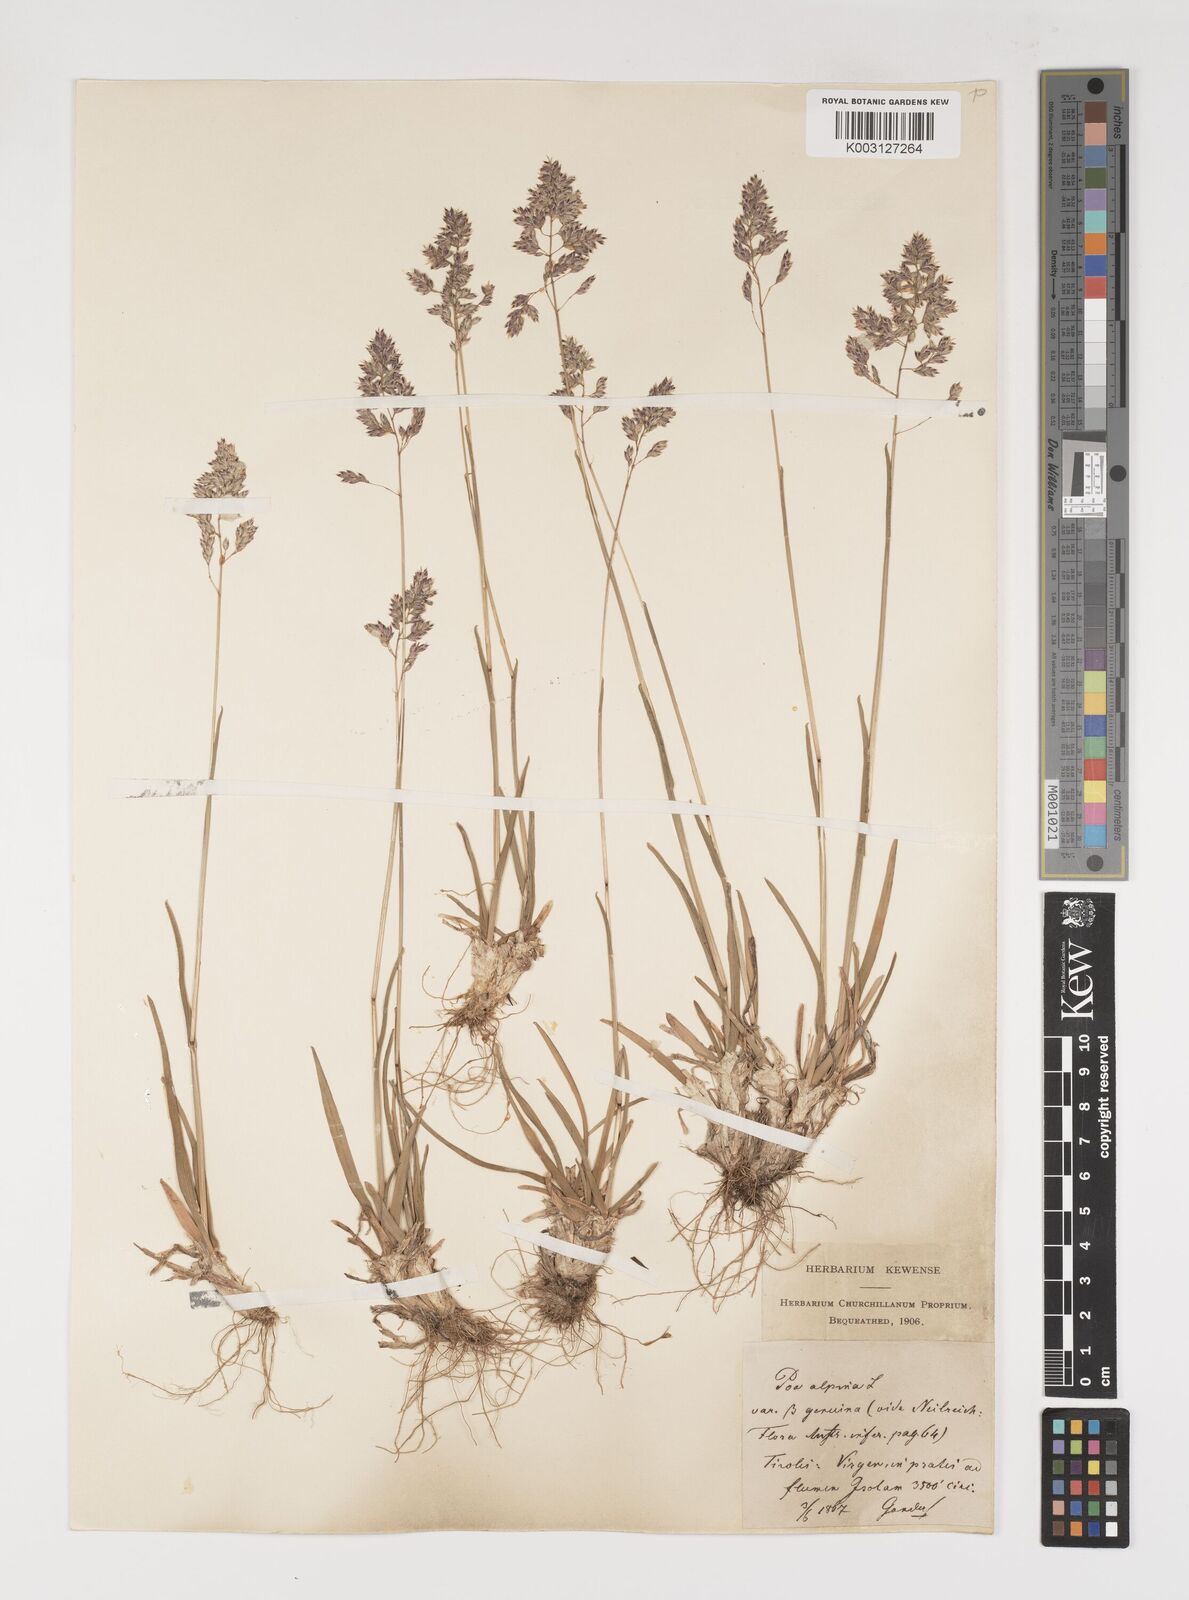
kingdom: Plantae
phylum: Tracheophyta
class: Liliopsida
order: Poales
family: Poaceae
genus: Poa
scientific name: Poa alpina
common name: Alpine bluegrass
